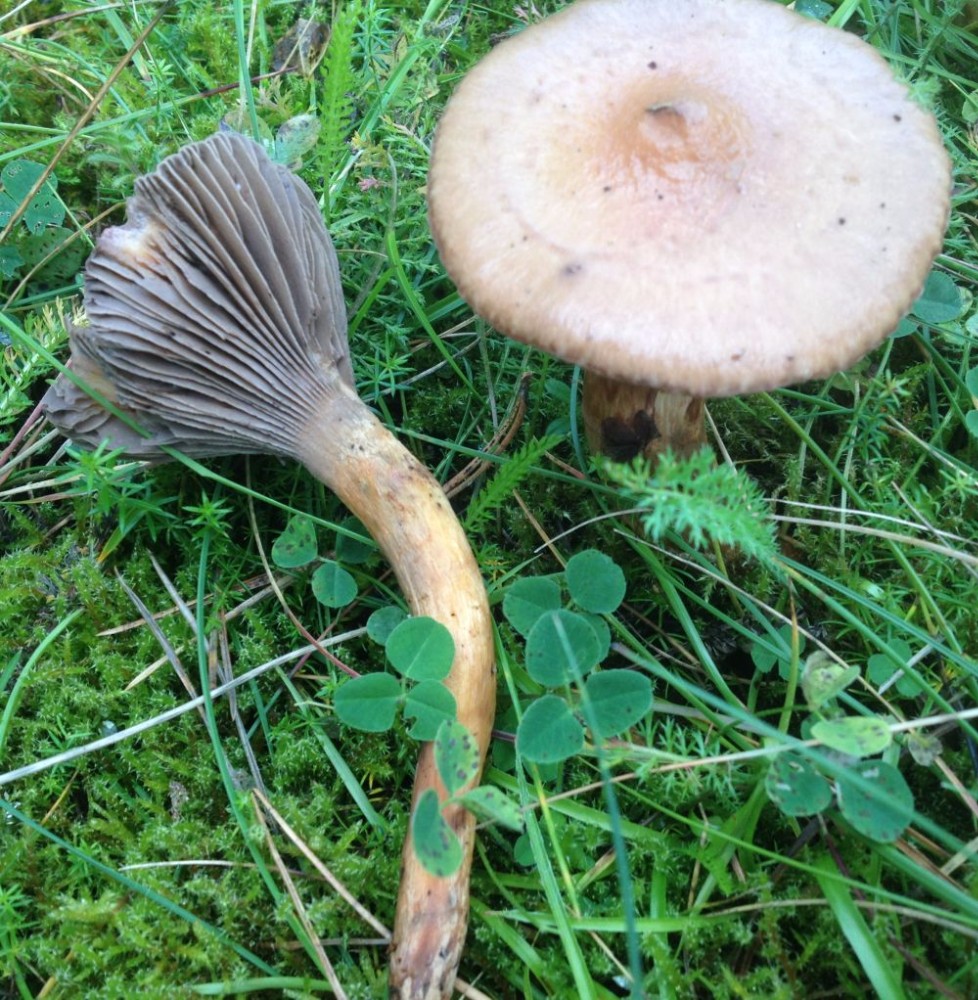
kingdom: Fungi
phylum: Basidiomycota
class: Agaricomycetes
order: Boletales
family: Gomphidiaceae
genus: Chroogomphus
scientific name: Chroogomphus rutilus
